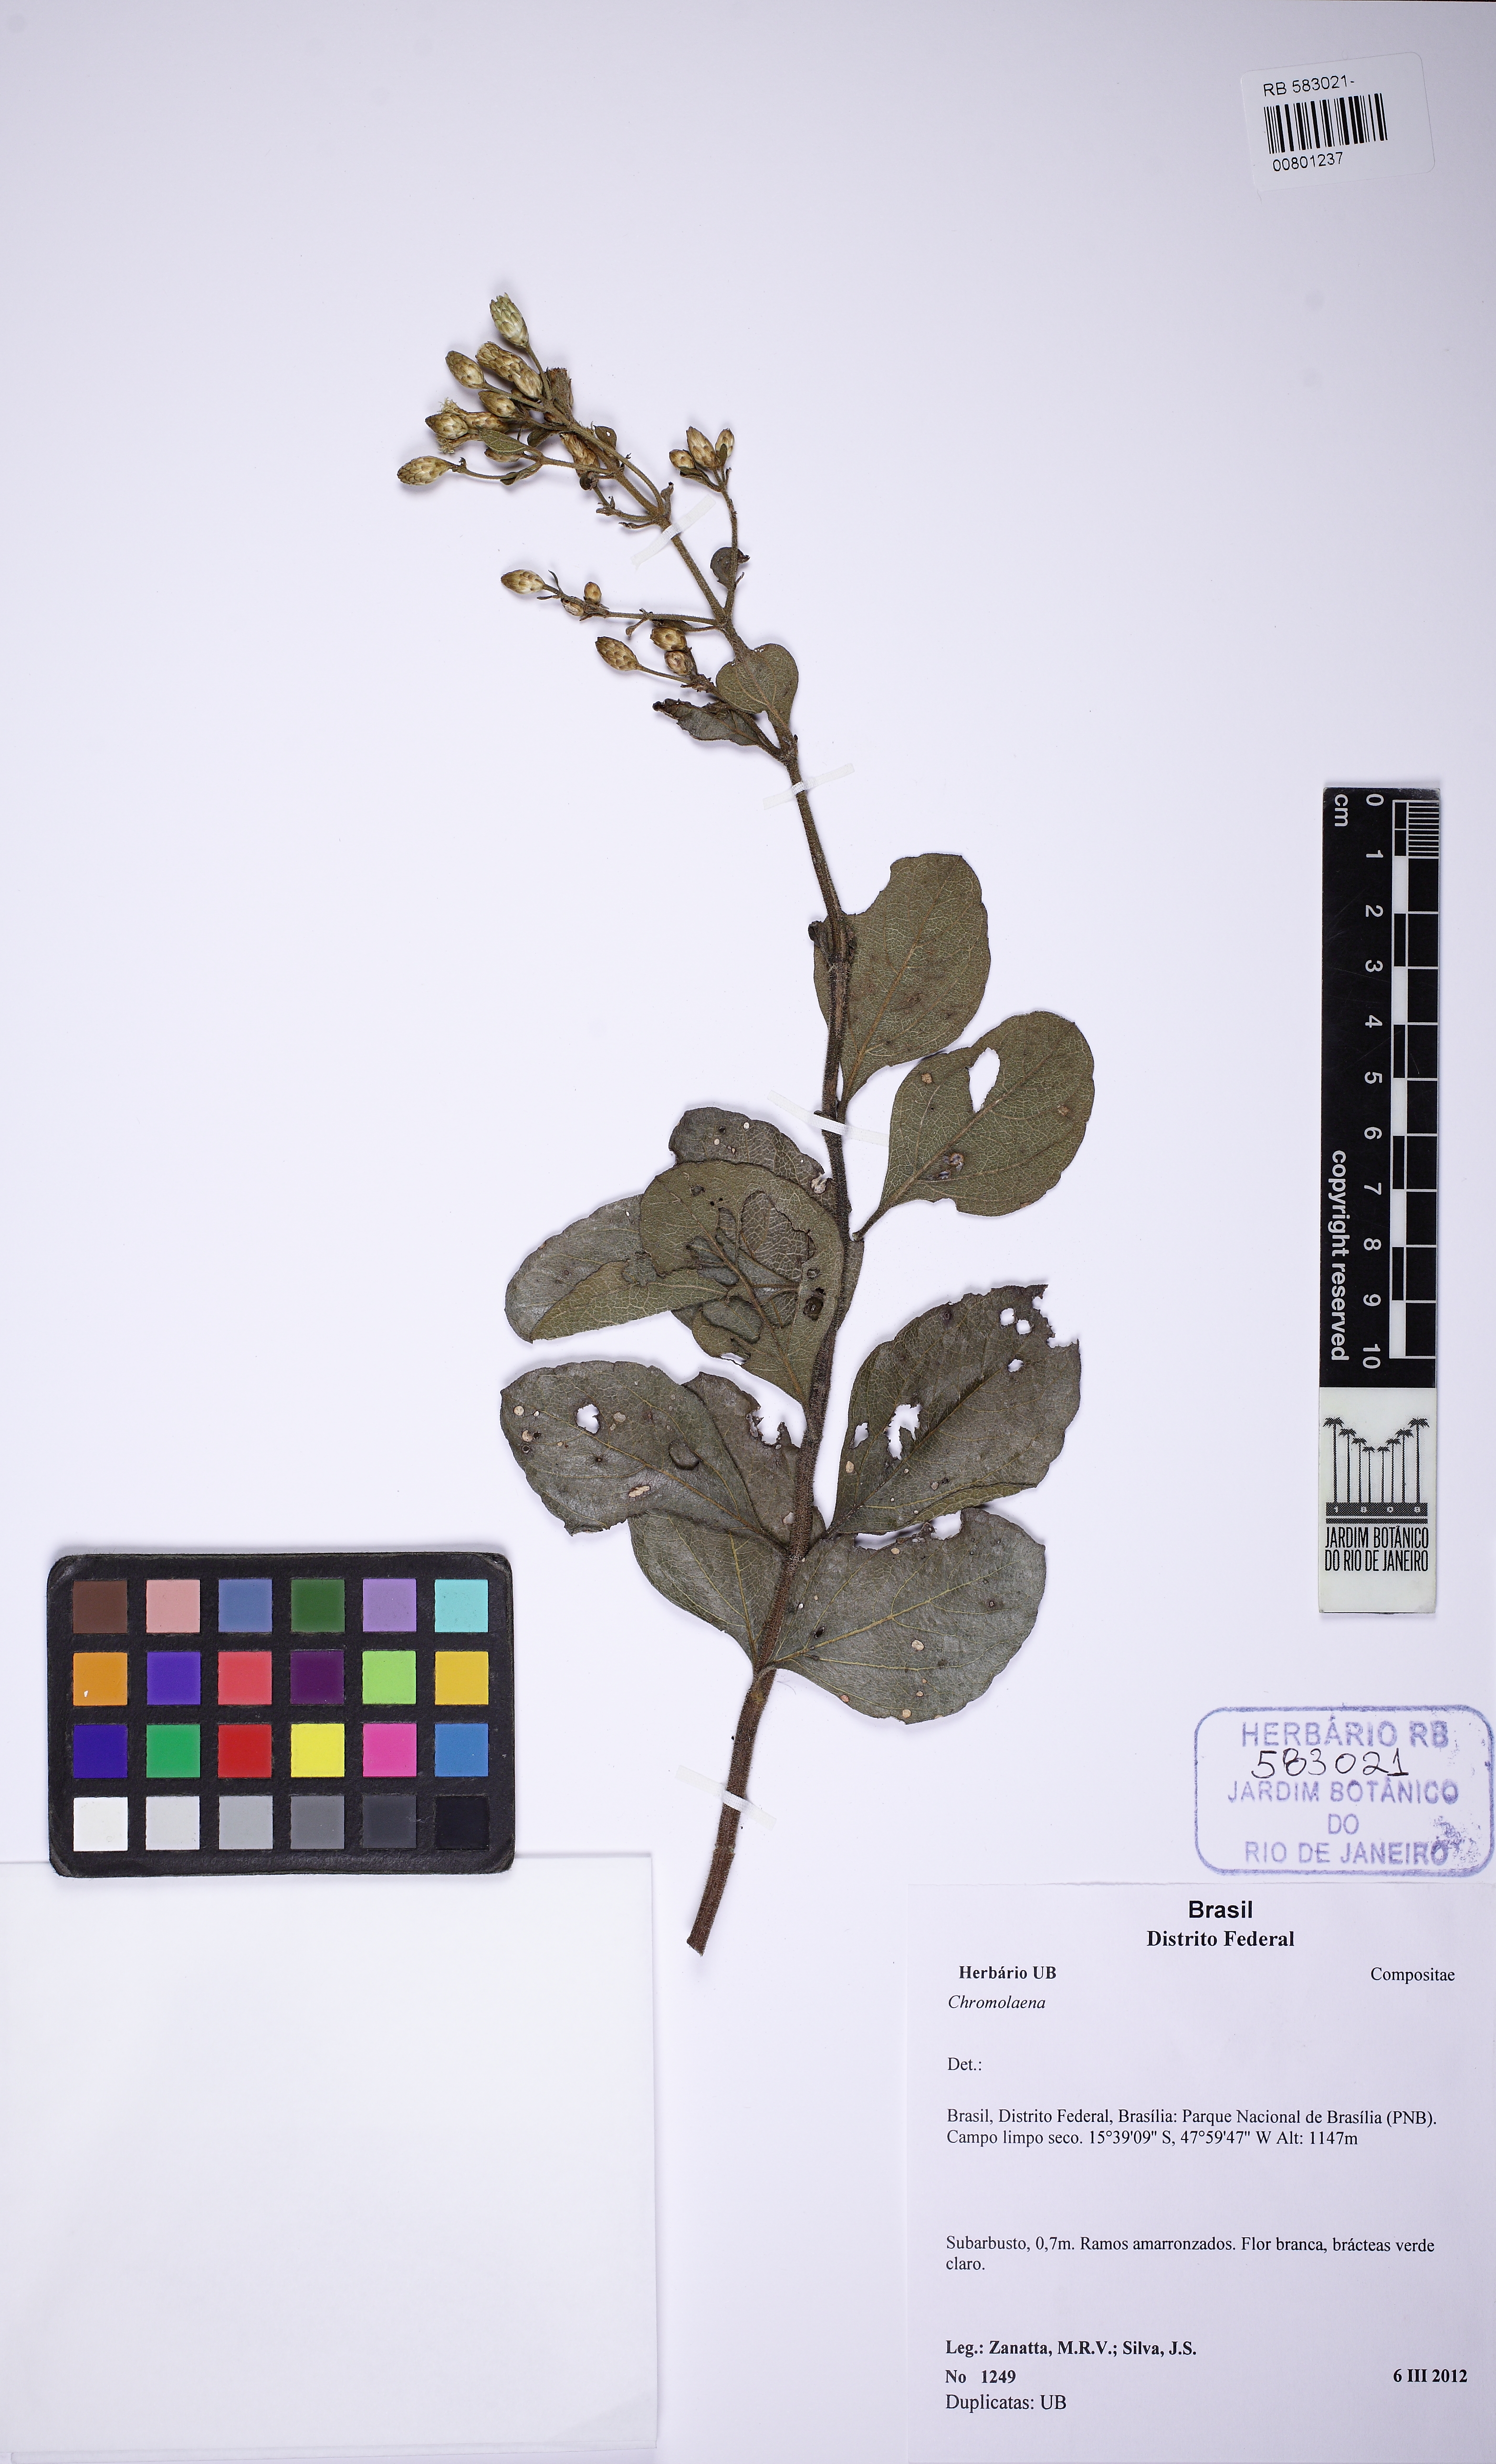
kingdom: Plantae
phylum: Tracheophyta
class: Magnoliopsida
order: Asterales
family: Asteraceae
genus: Chromolaena
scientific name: Chromolaena
